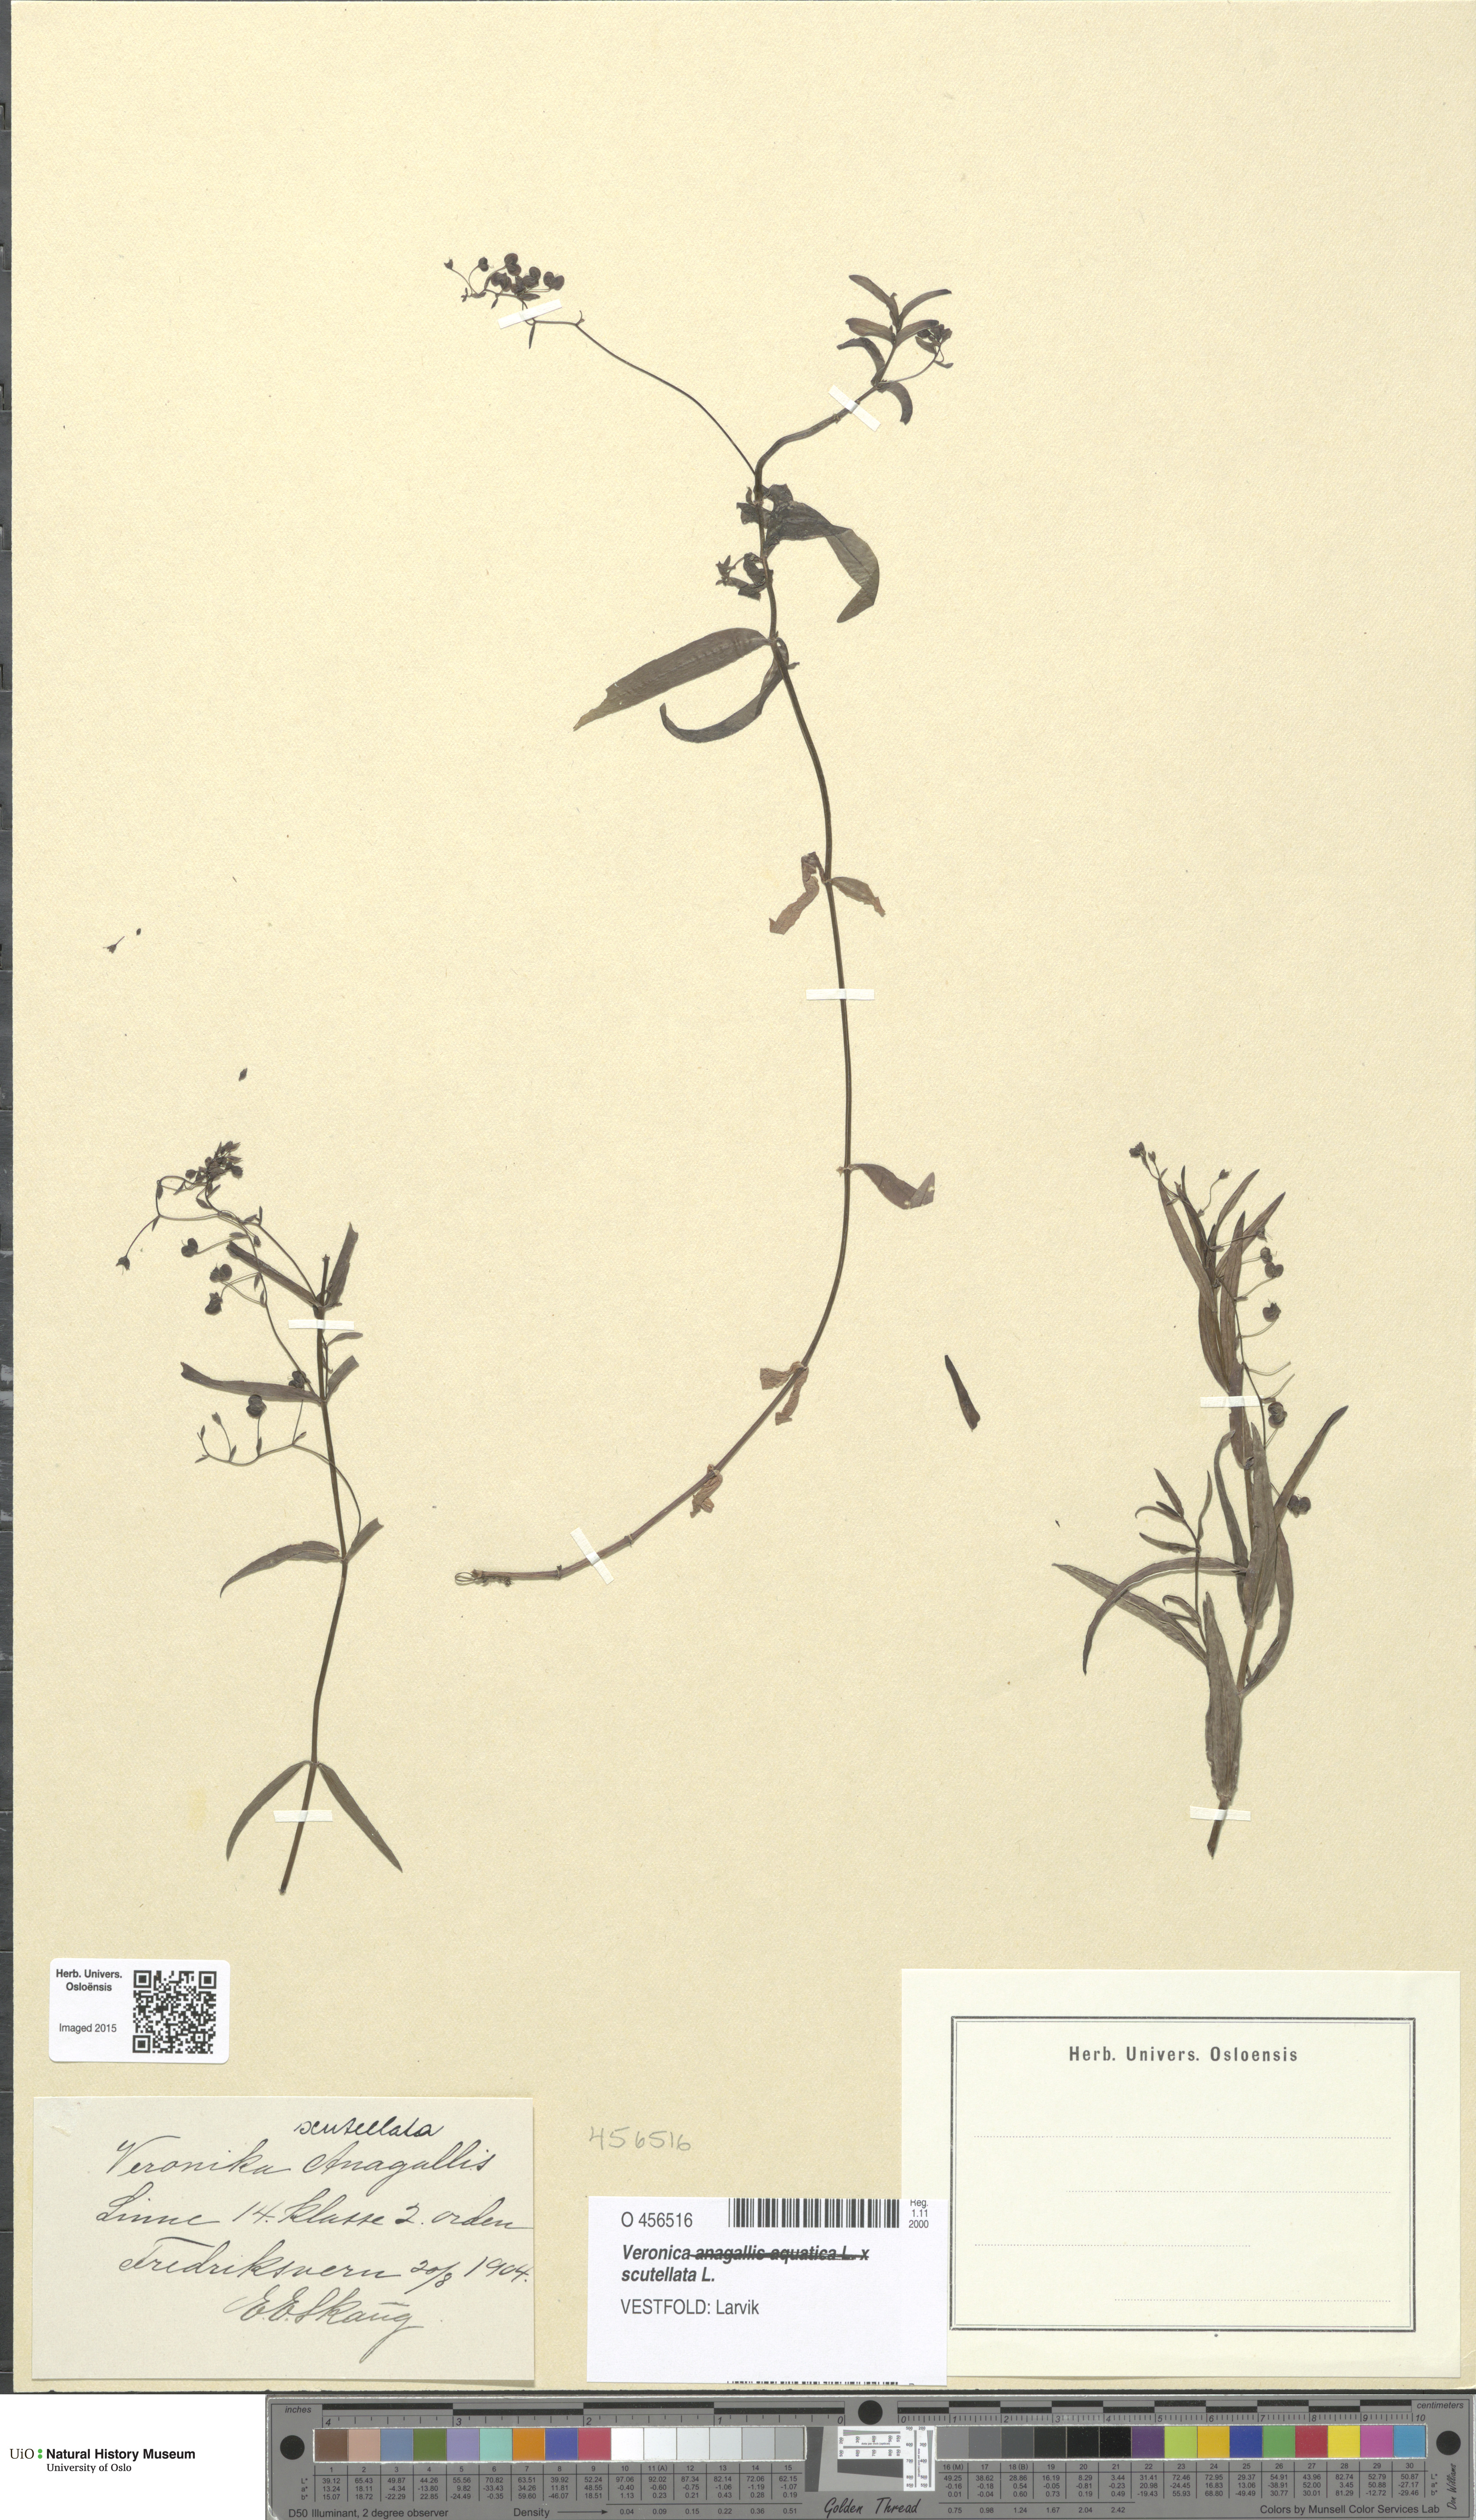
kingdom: Plantae
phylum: Tracheophyta
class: Magnoliopsida
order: Lamiales
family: Plantaginaceae
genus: Veronica
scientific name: Veronica scutellata
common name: Marsh speedwell
